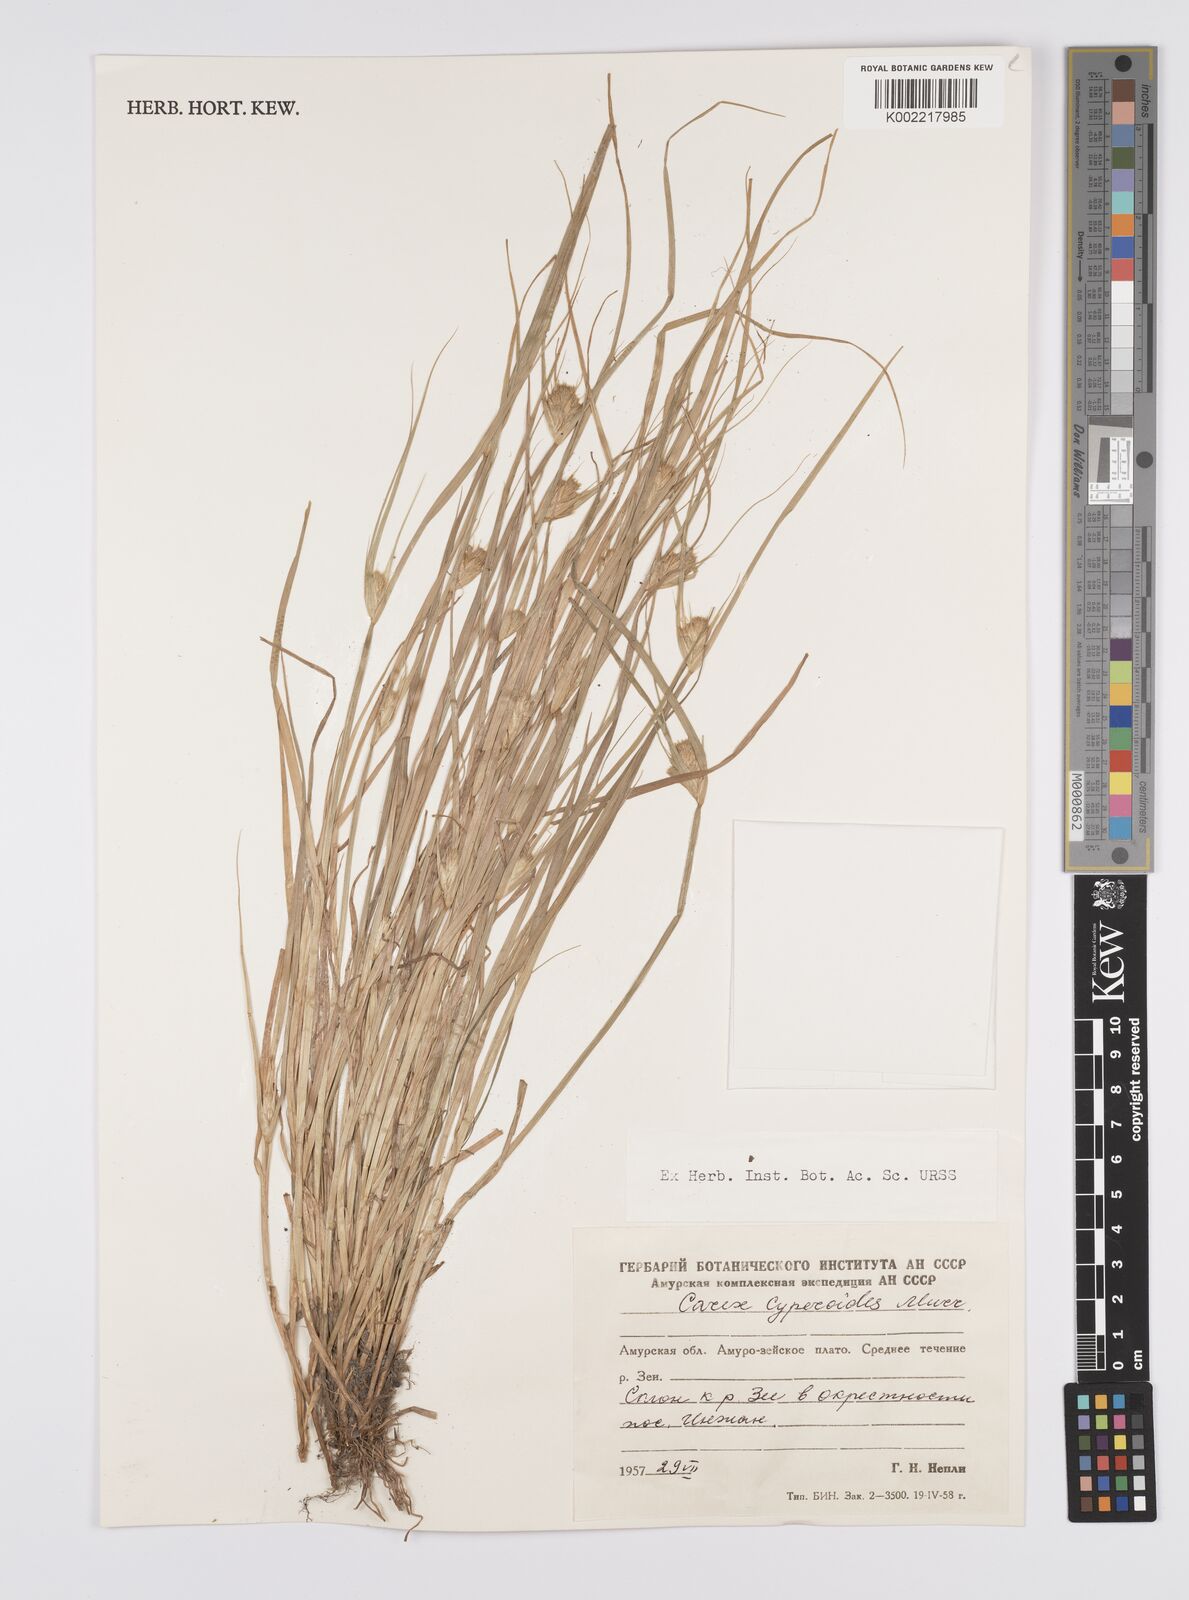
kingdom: Plantae
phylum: Tracheophyta
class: Liliopsida
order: Poales
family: Cyperaceae
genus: Carex
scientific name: Carex bohemica
